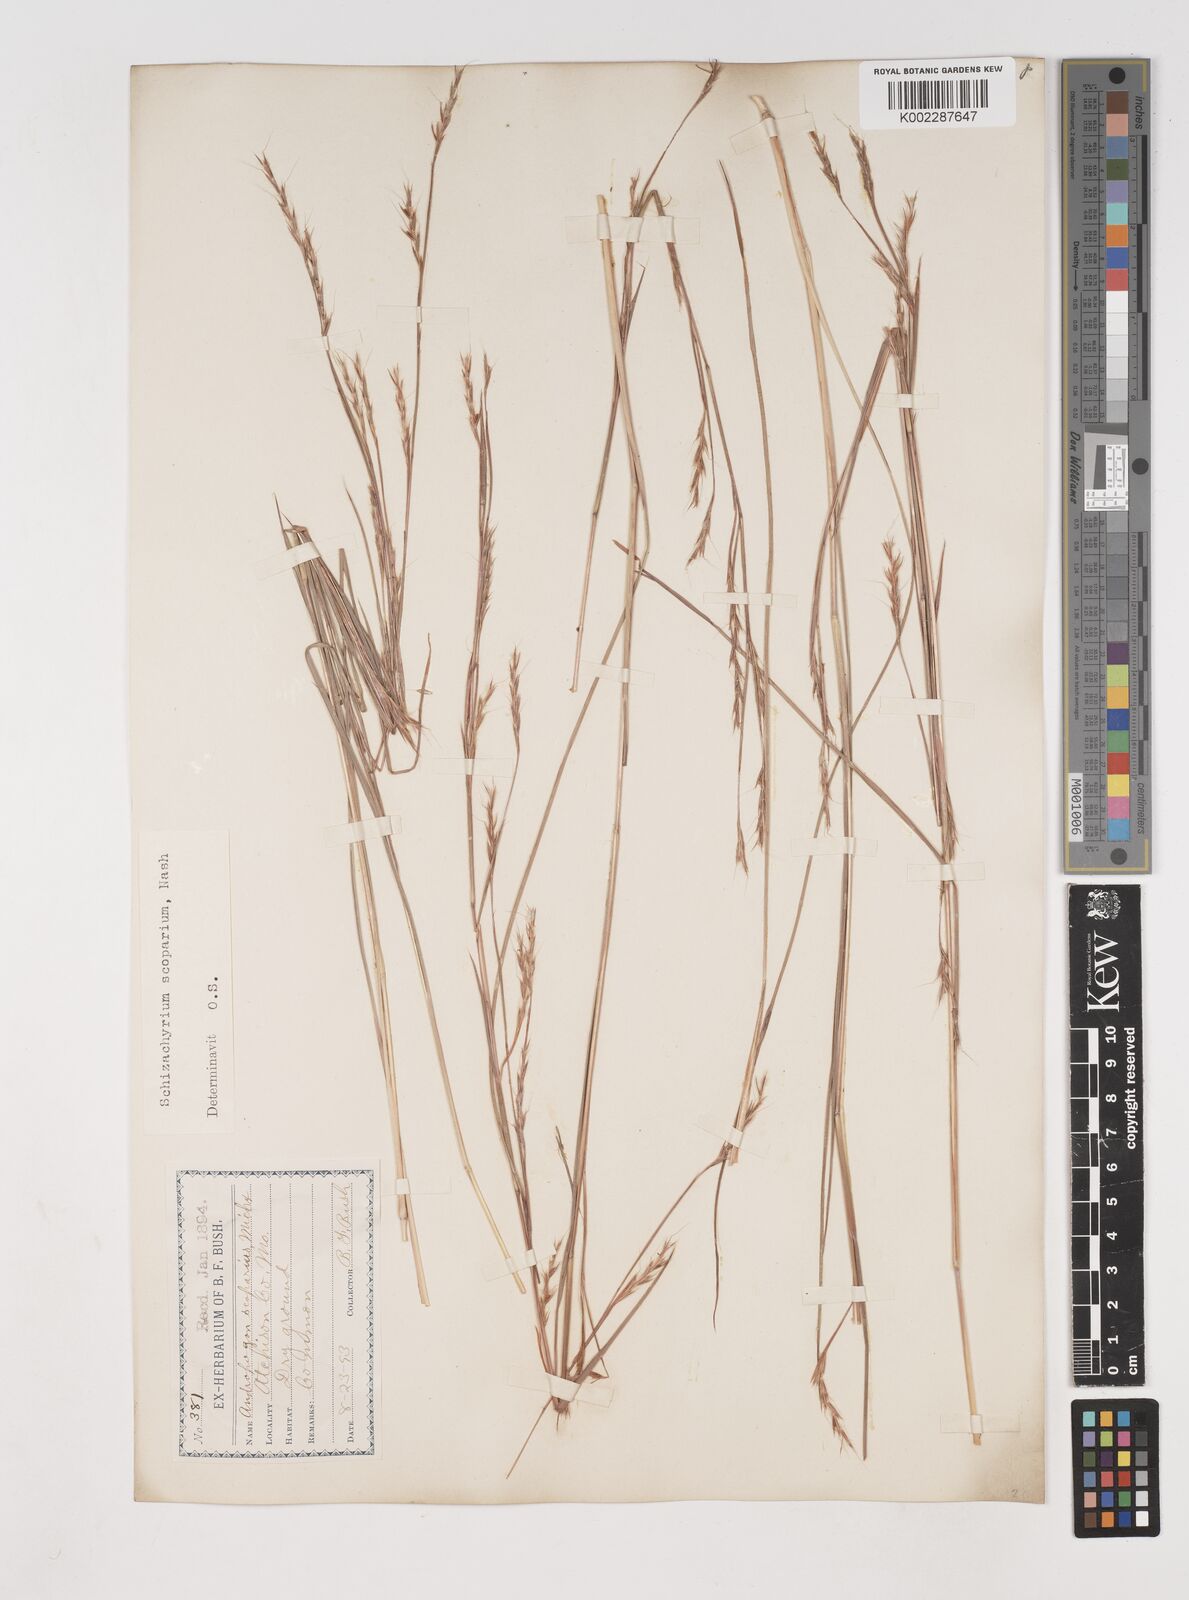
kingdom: Plantae
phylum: Tracheophyta
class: Liliopsida
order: Poales
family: Poaceae
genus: Schizachyrium
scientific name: Schizachyrium scoparium
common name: Little bluestem
